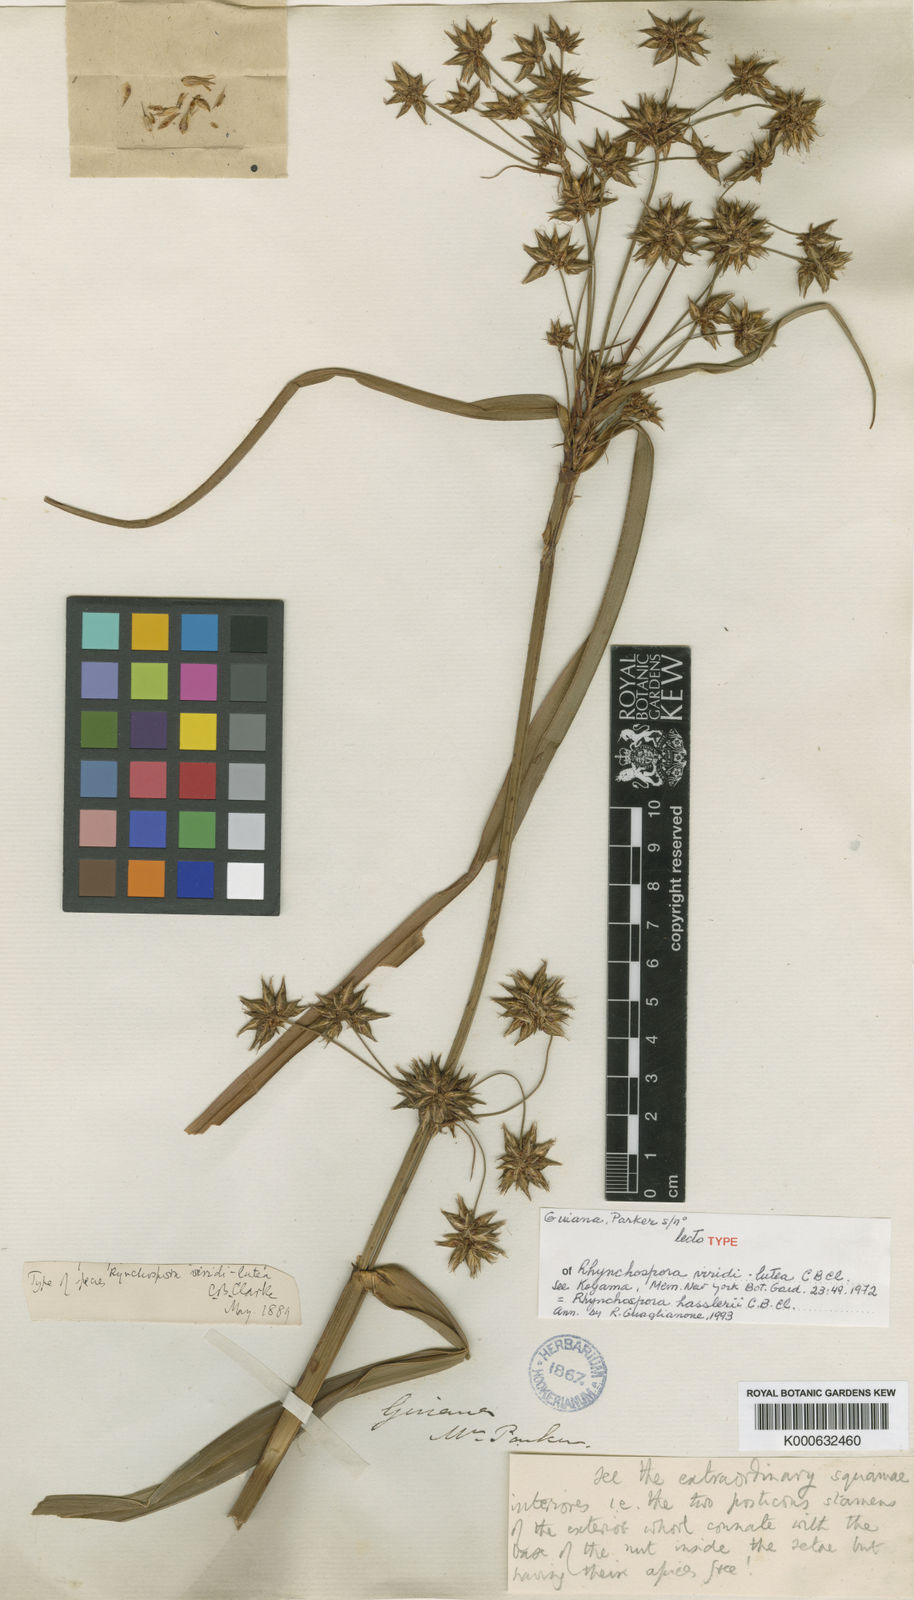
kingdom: Plantae
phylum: Tracheophyta
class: Liliopsida
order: Poales
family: Cyperaceae
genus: Rhynchospora
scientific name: Rhynchospora hassleri
